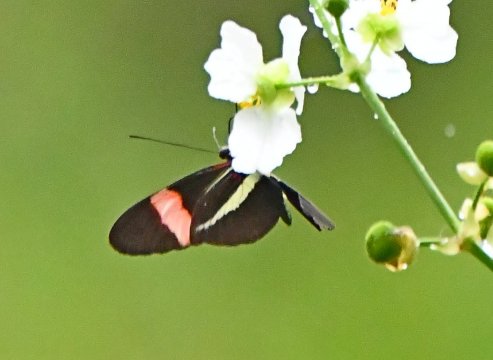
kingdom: Animalia
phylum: Arthropoda
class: Insecta
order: Lepidoptera
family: Nymphalidae
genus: Heliconius
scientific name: Heliconius erato
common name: Erato Heliconian
